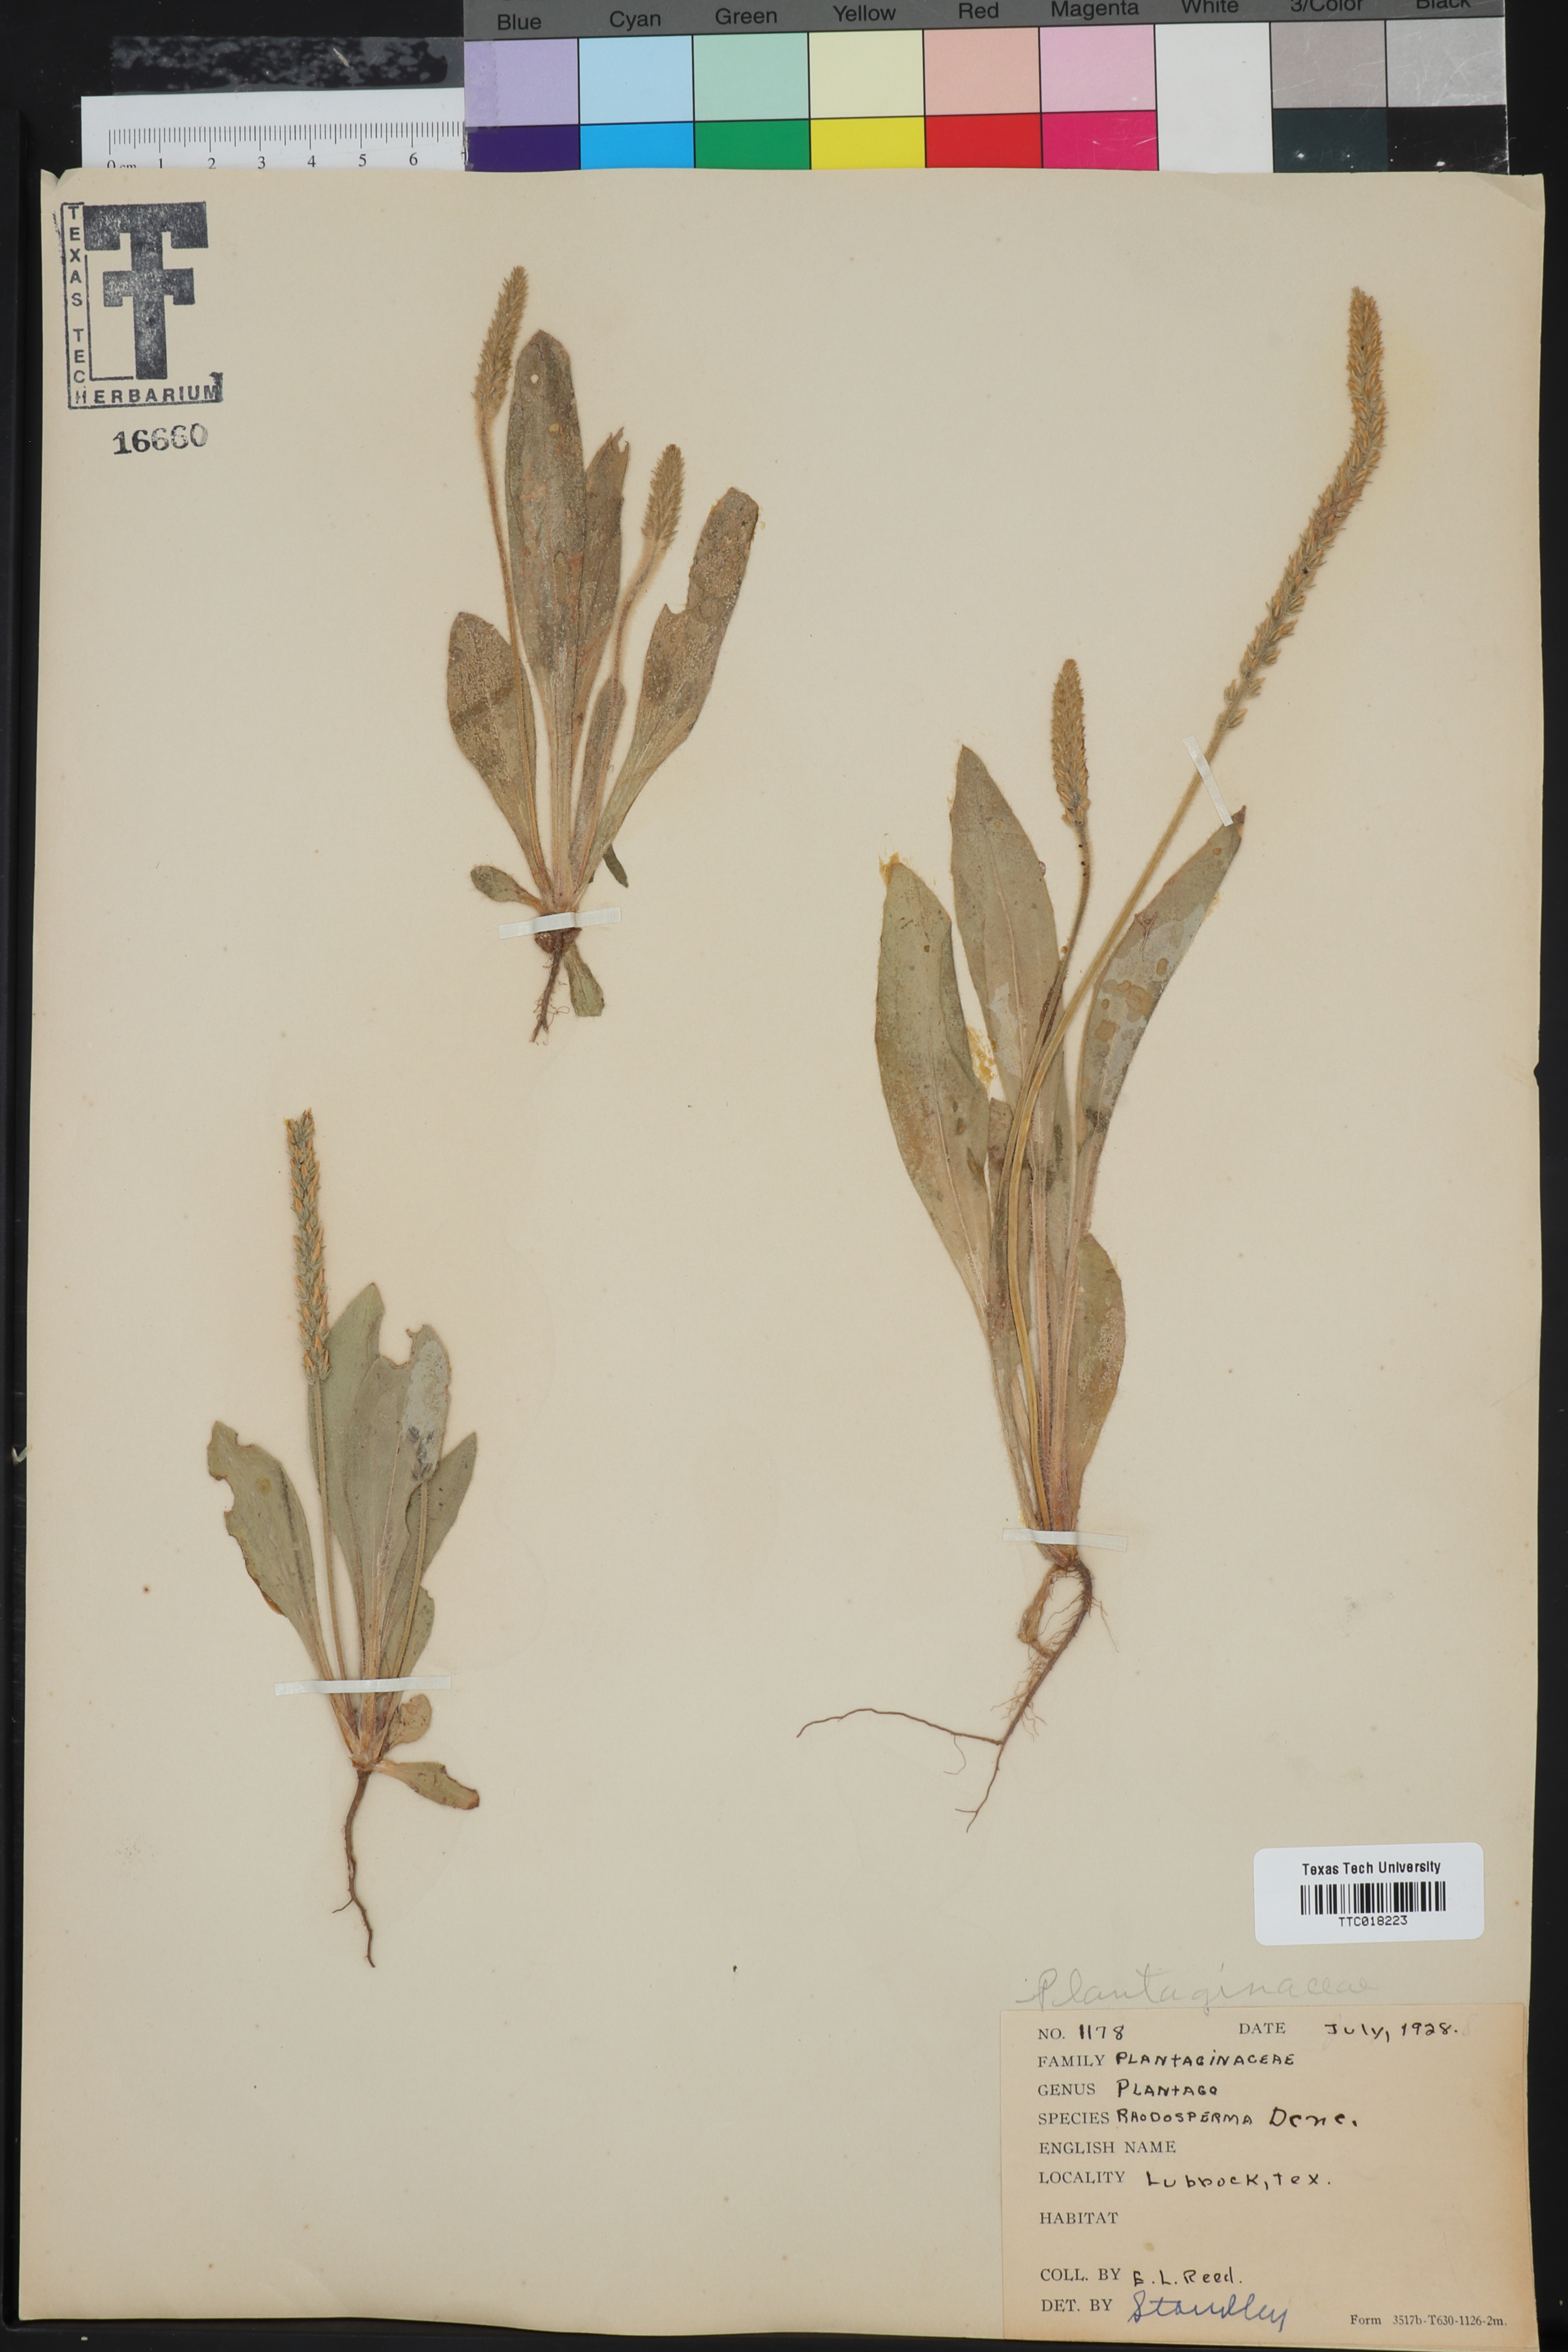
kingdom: Plantae
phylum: Tracheophyta
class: Magnoliopsida
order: Lamiales
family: Plantaginaceae
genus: Plantago
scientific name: Plantago rhodosperma
